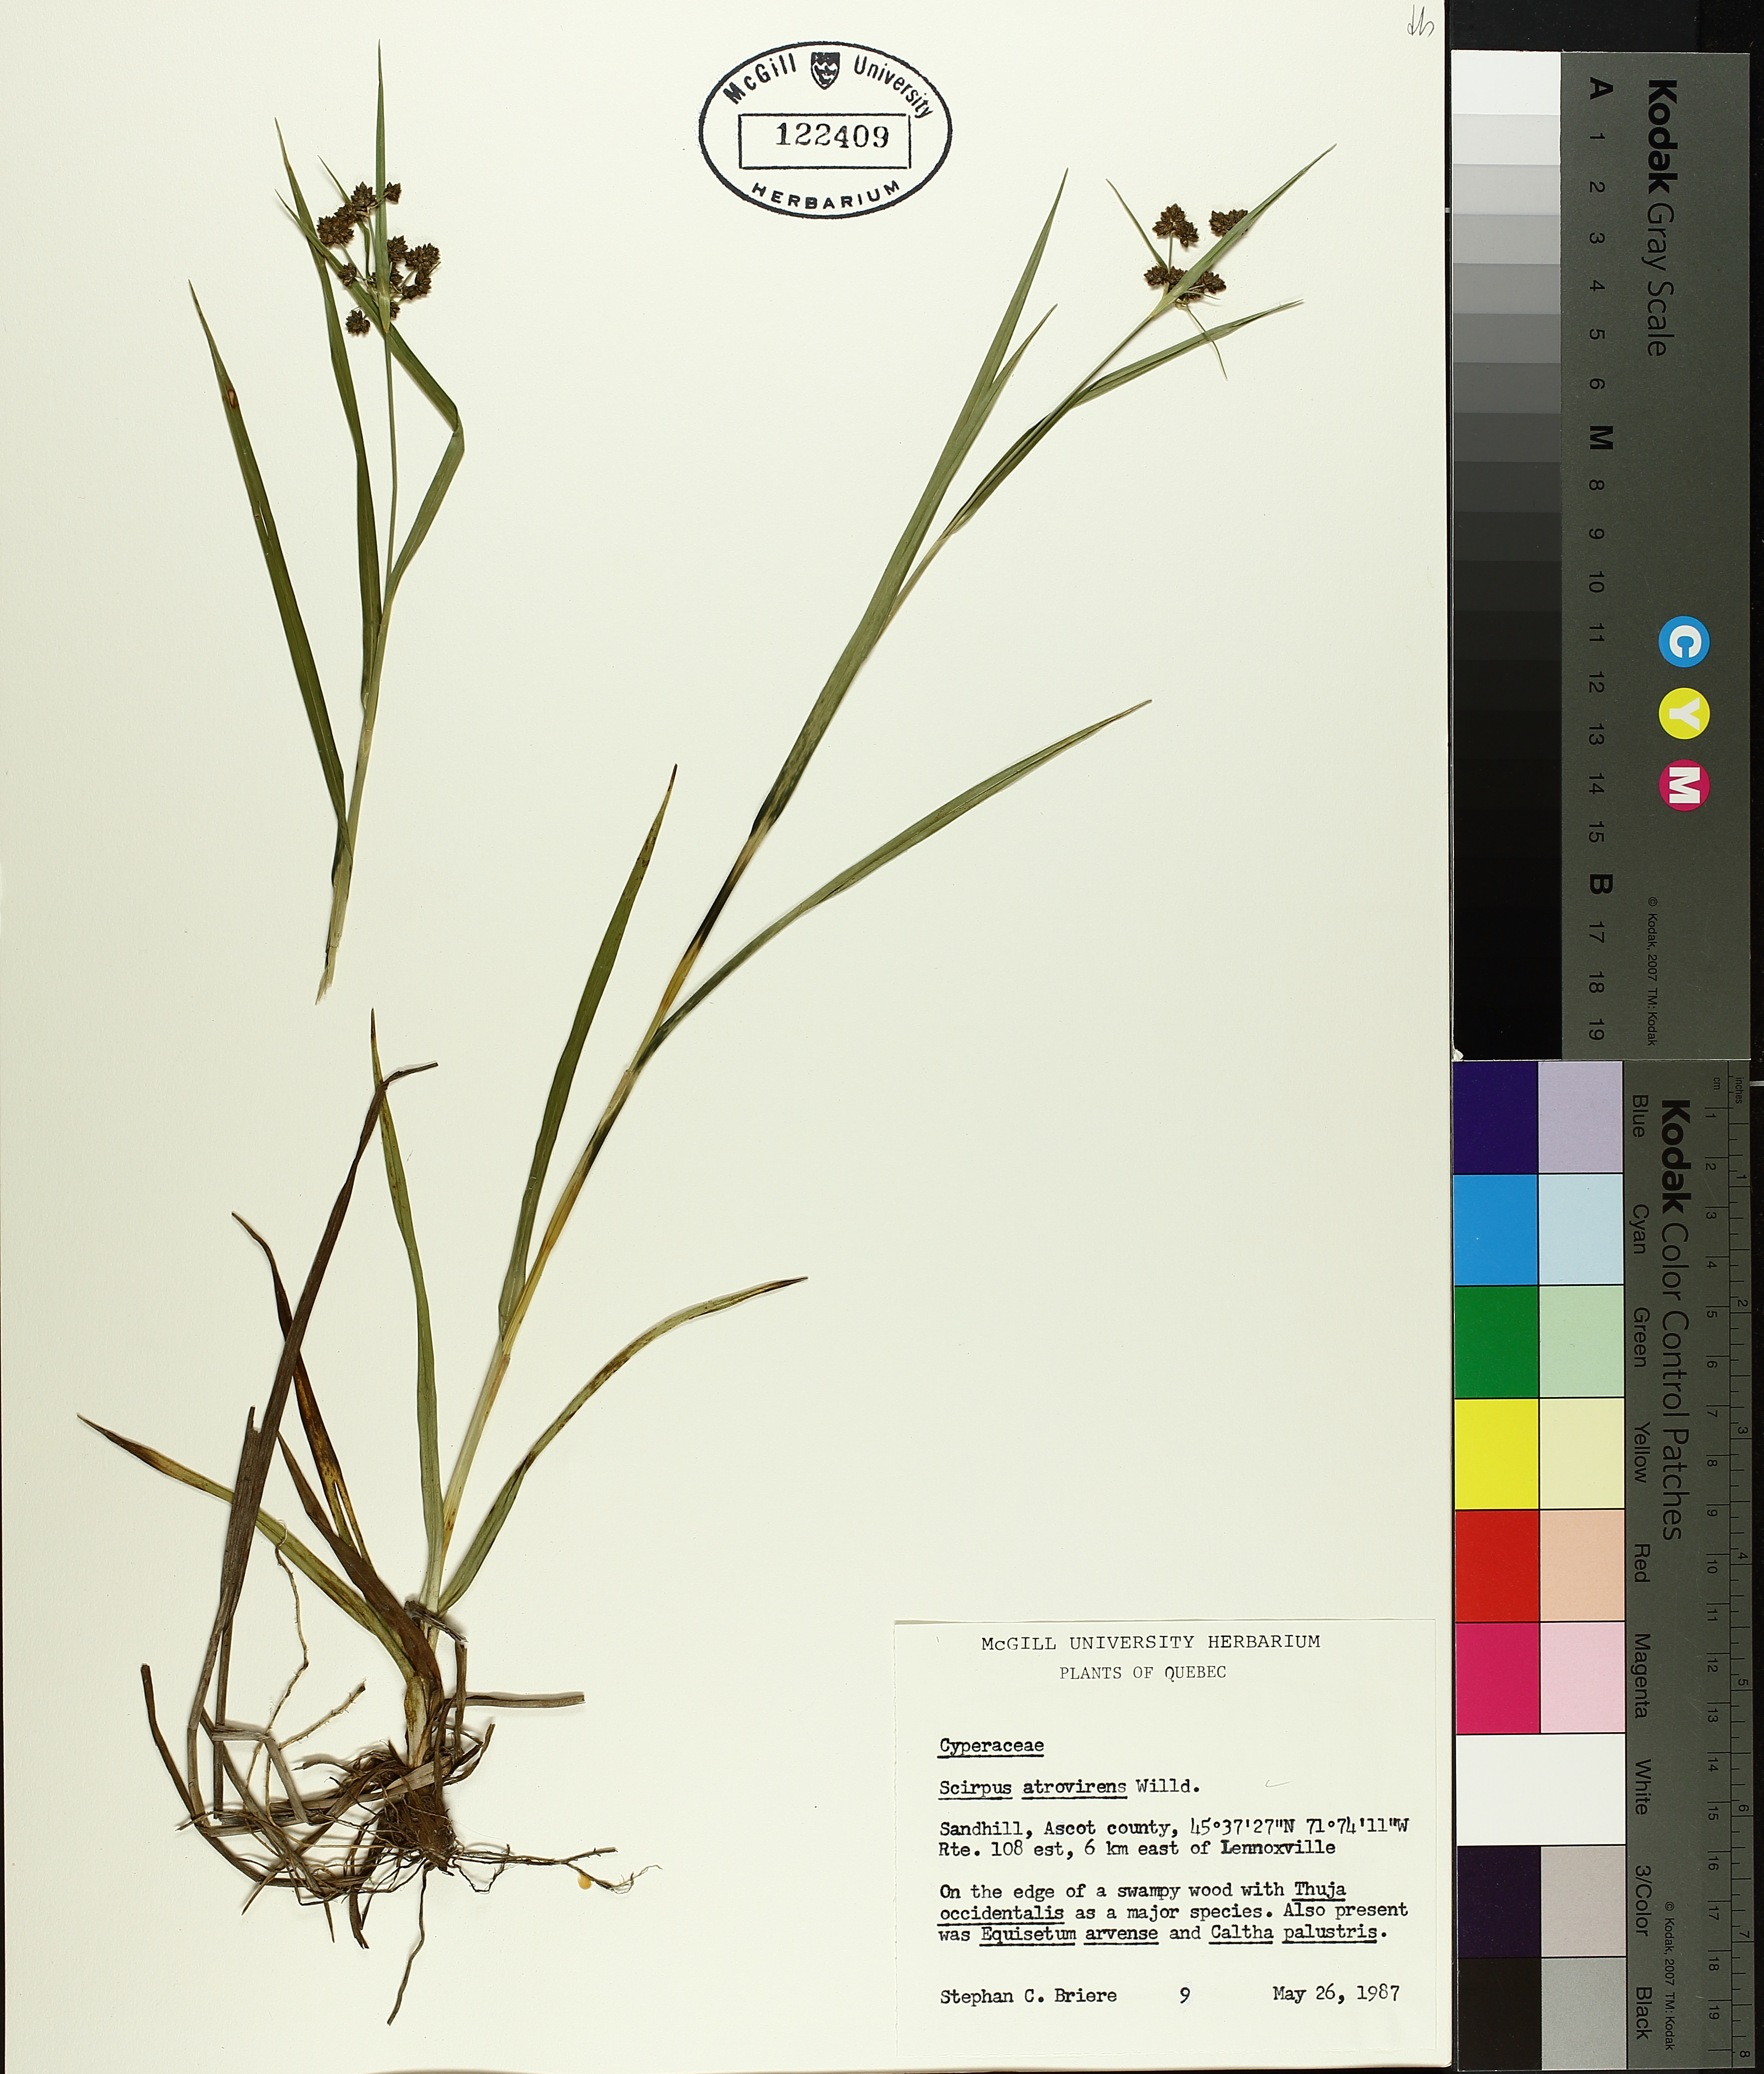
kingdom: Plantae
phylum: Tracheophyta
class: Liliopsida
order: Poales
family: Cyperaceae
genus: Scirpus
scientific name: Scirpus atrovirens
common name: Black bulrush
